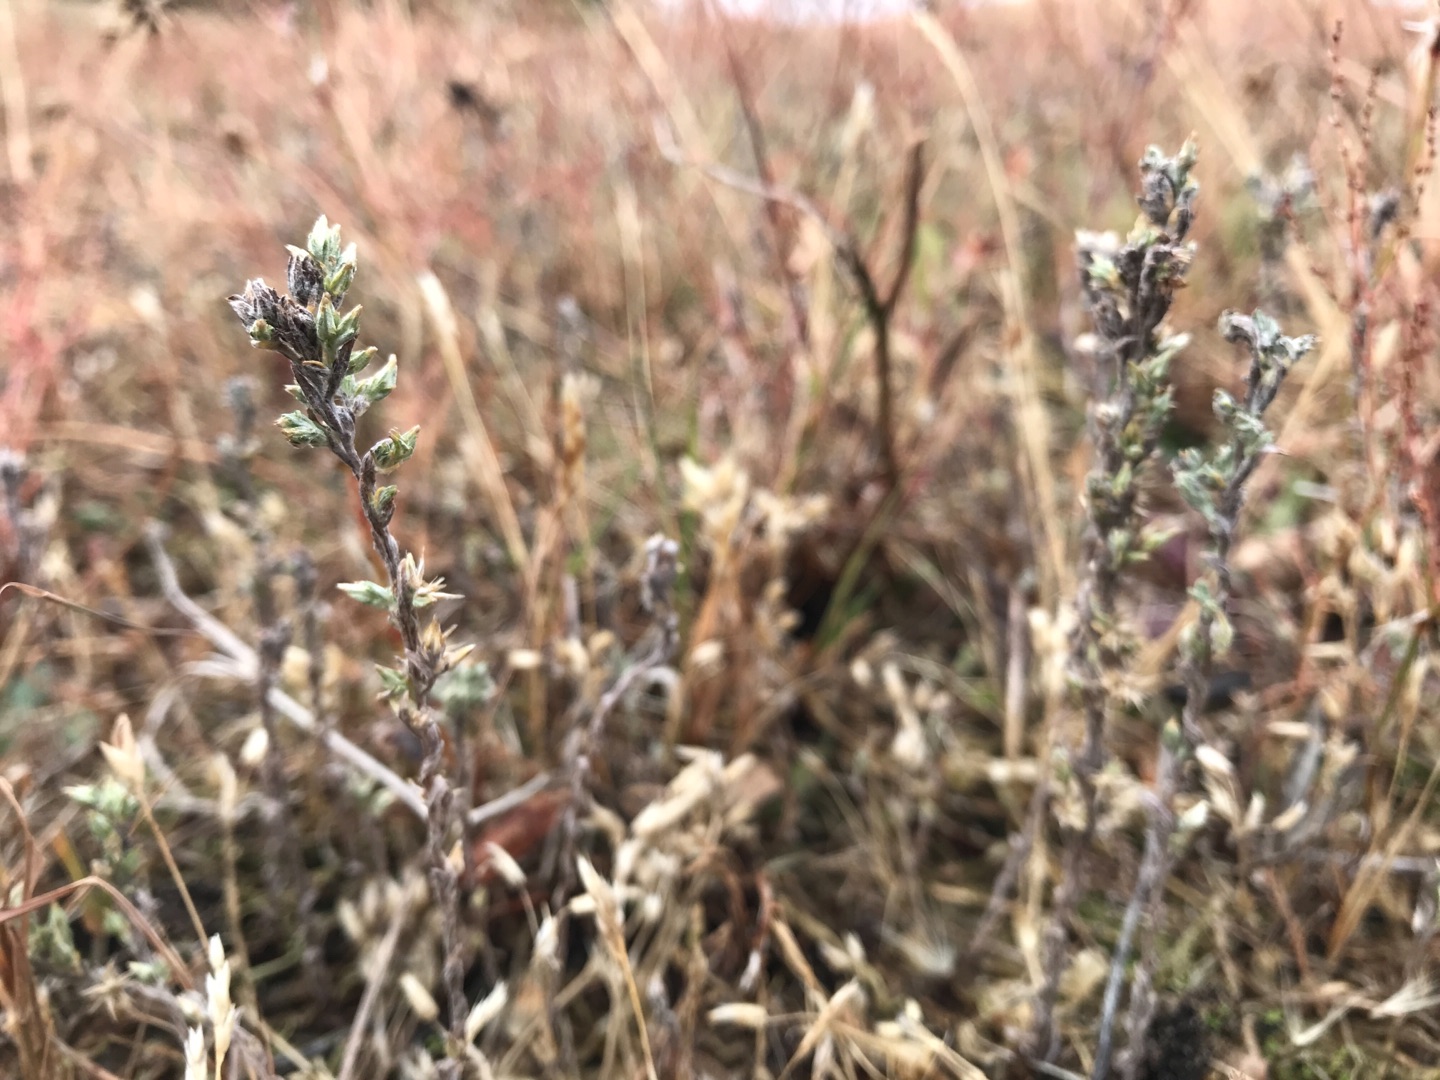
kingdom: Plantae
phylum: Tracheophyta
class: Magnoliopsida
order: Asterales
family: Asteraceae
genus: Logfia
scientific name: Logfia minima
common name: Liden museurt
